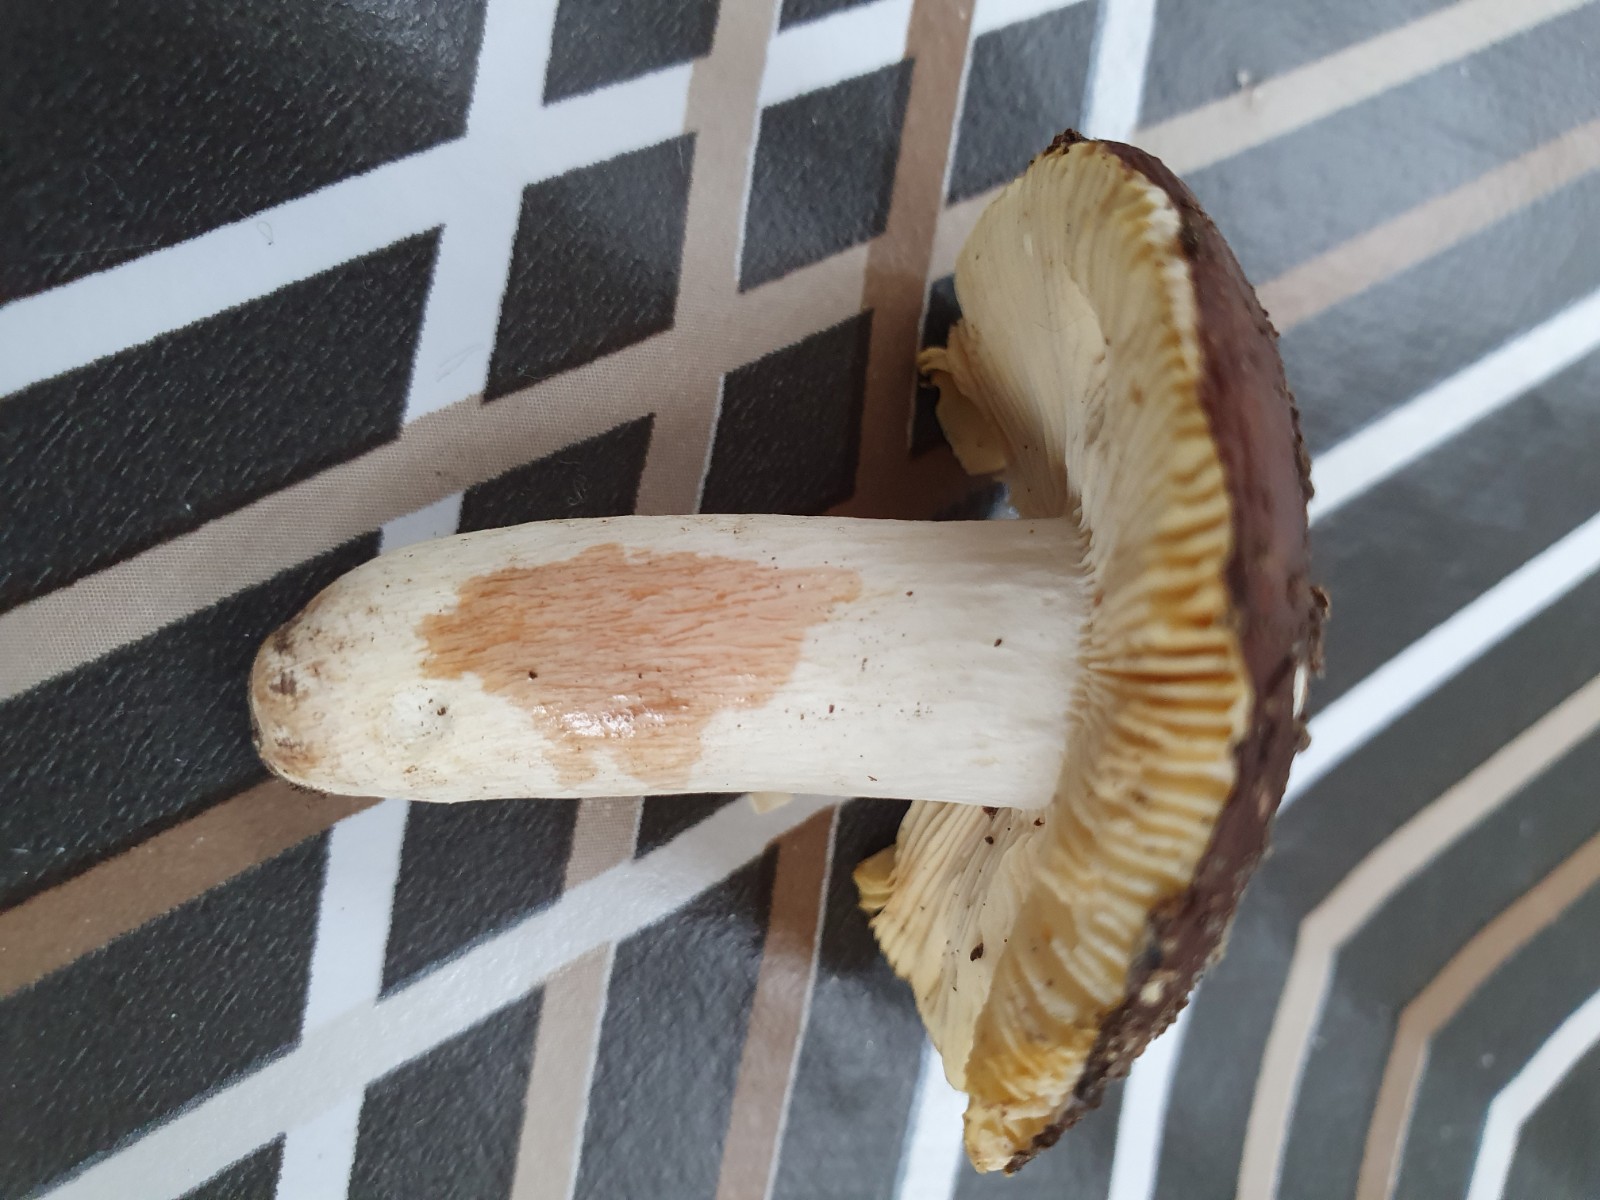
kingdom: Fungi
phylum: Basidiomycota
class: Agaricomycetes
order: Russulales
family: Russulaceae
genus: Russula
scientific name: Russula integra
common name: mandel-skørhat
